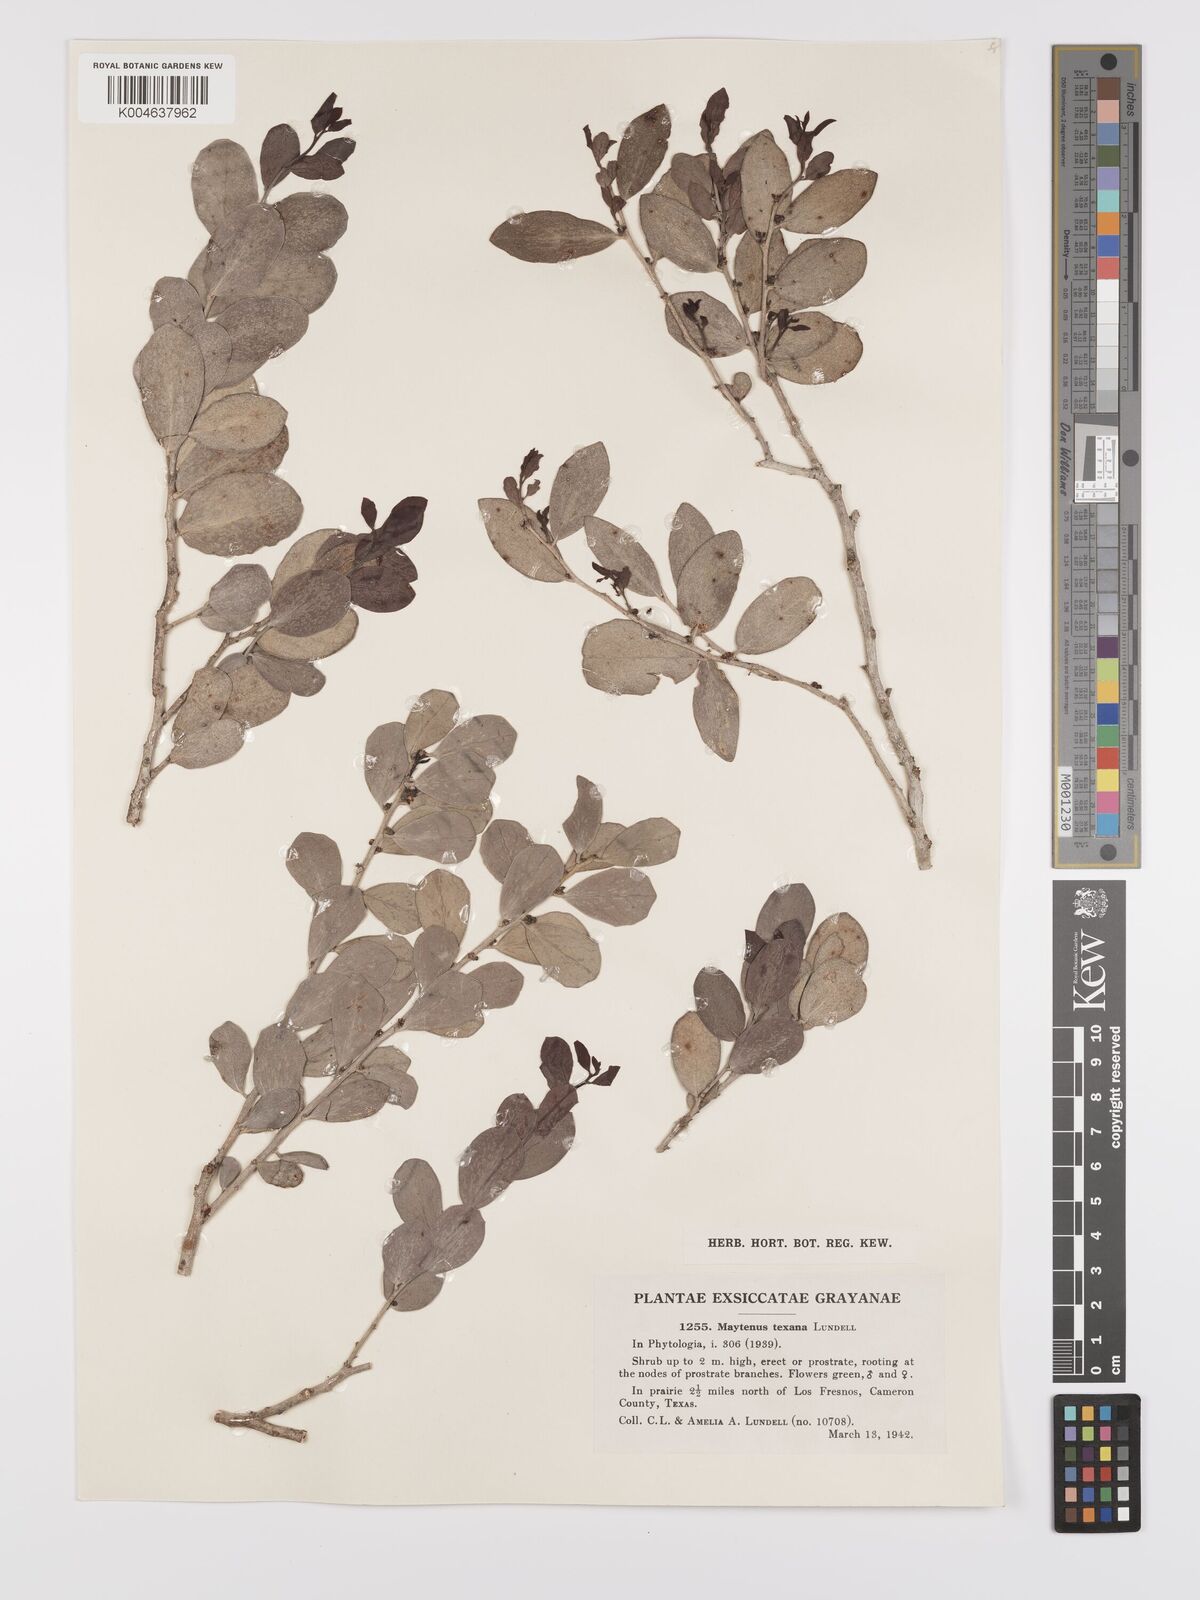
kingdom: Plantae
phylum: Tracheophyta
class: Magnoliopsida
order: Celastrales
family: Celastraceae
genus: Tricerma
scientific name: Tricerma phyllanthoides
